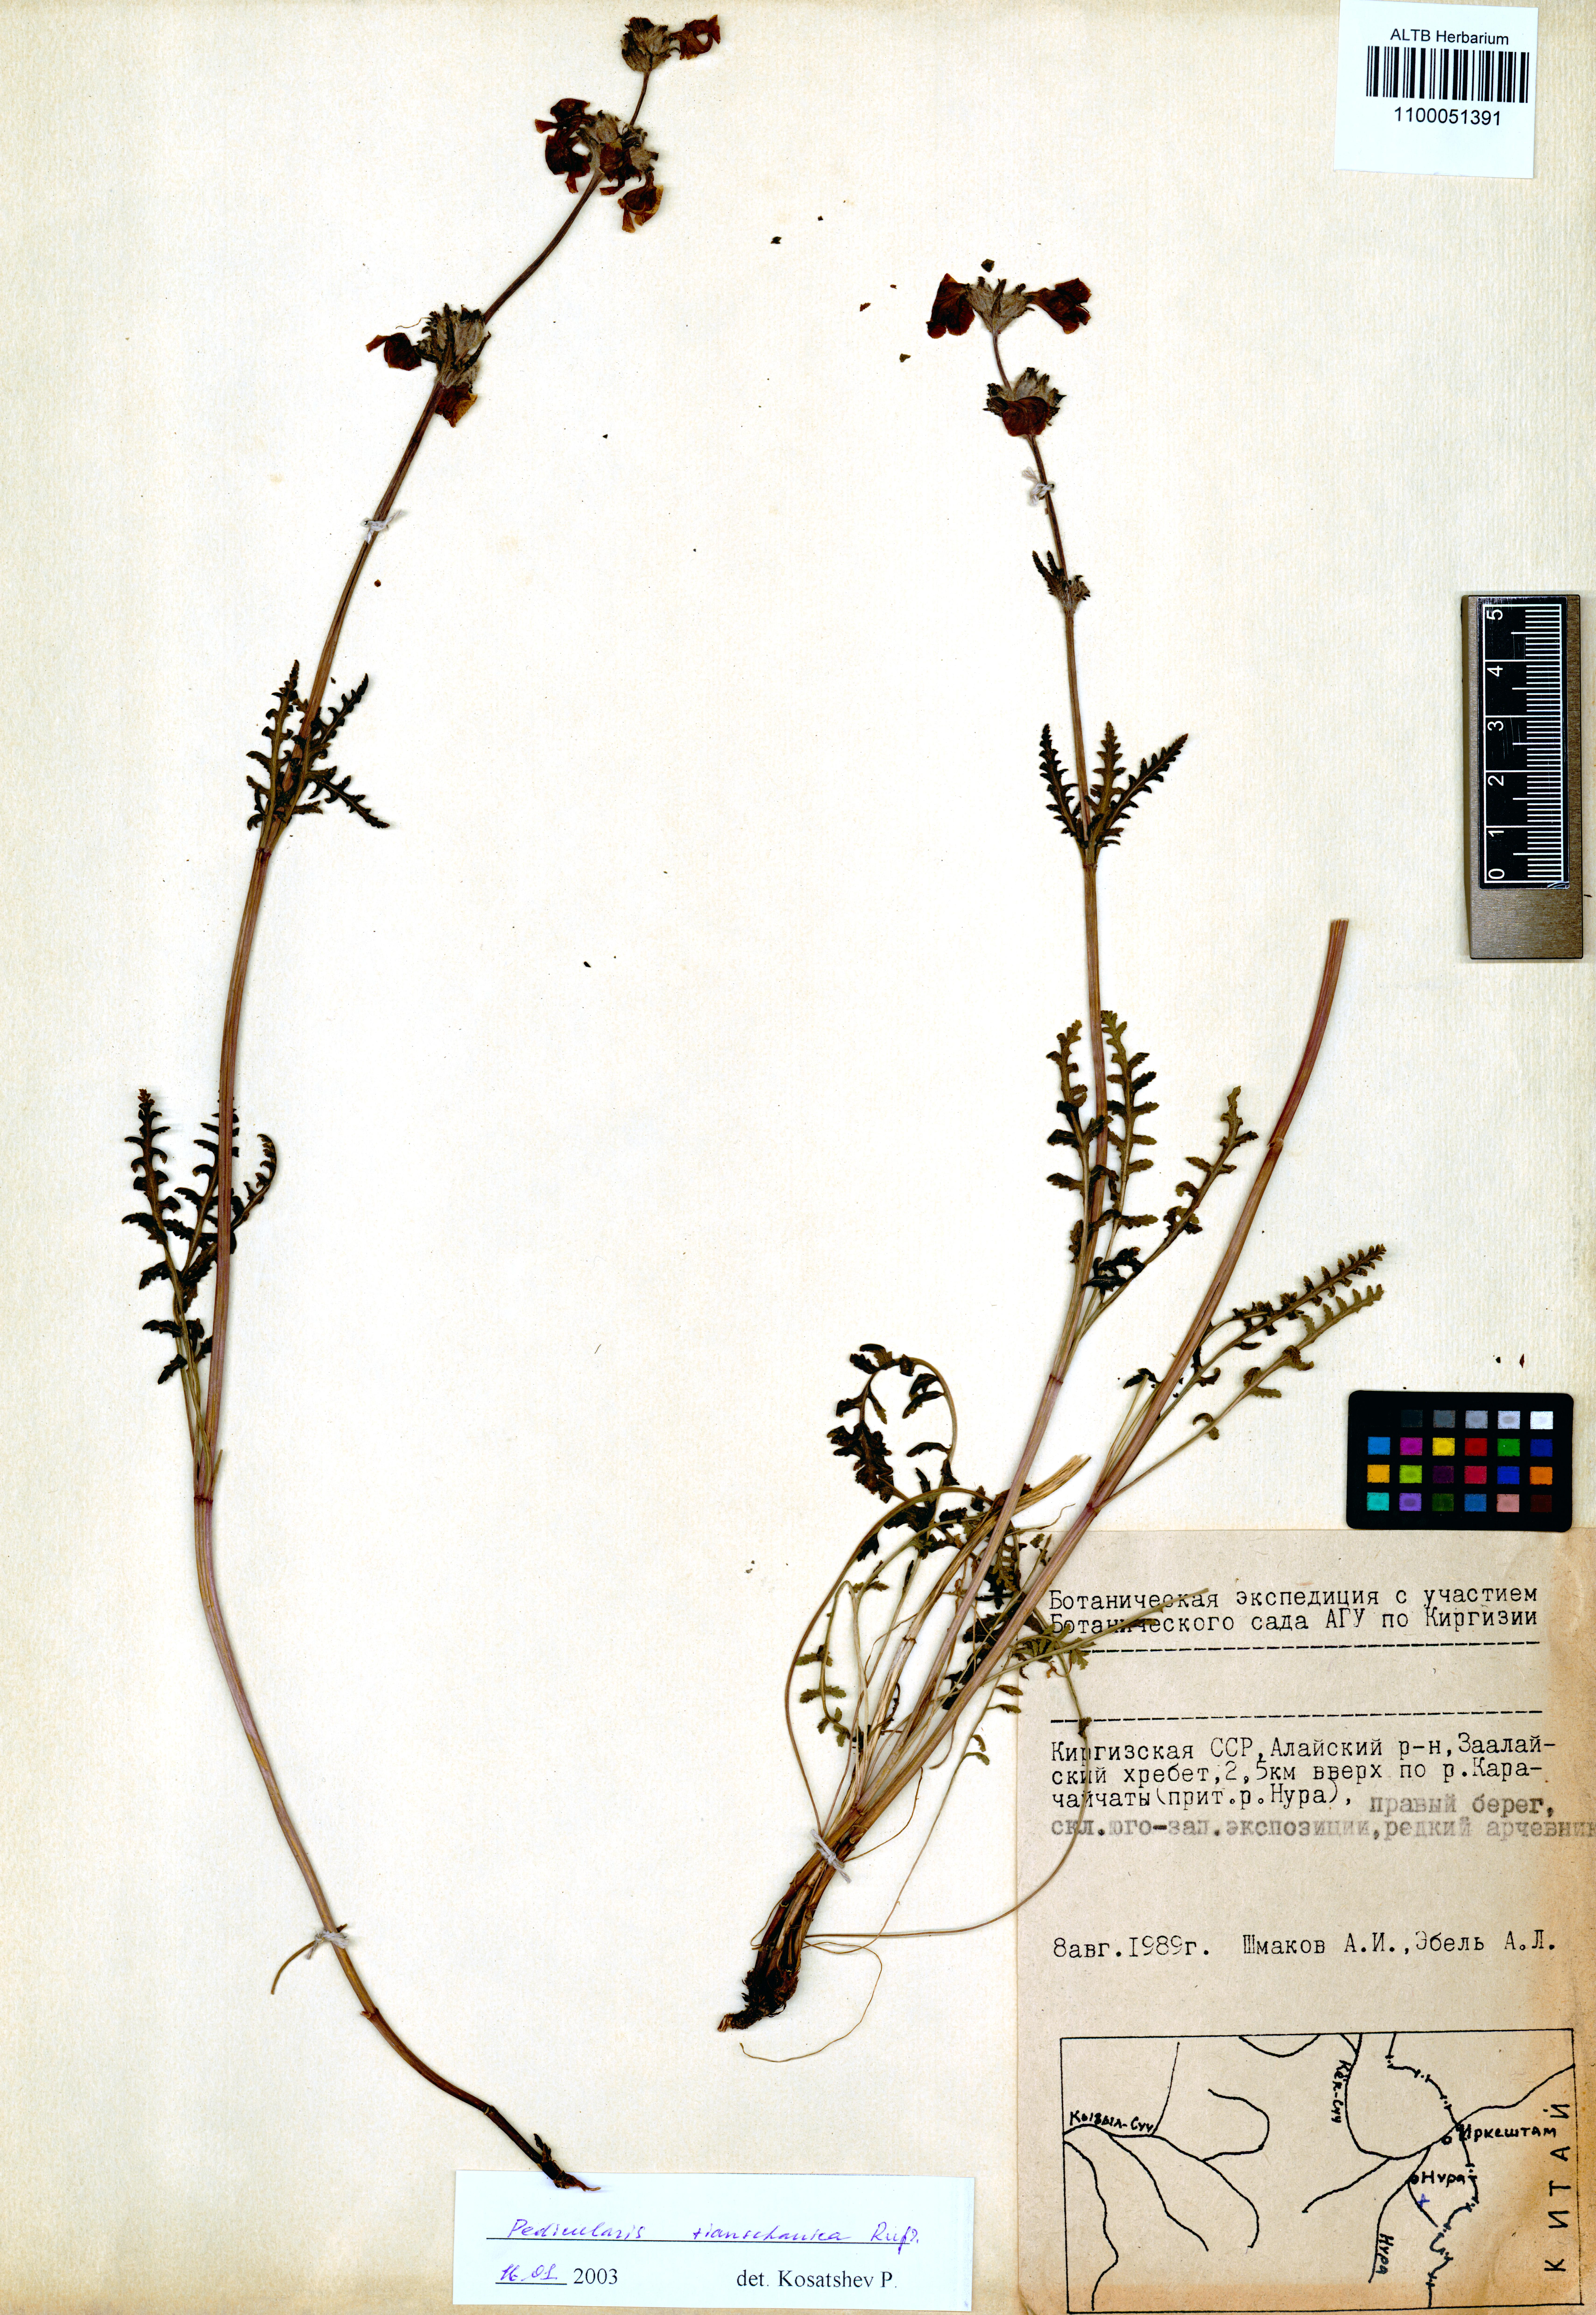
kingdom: Plantae
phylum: Tracheophyta
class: Magnoliopsida
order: Lamiales
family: Orobanchaceae
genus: Pedicularis
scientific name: Pedicularis tianschanica
